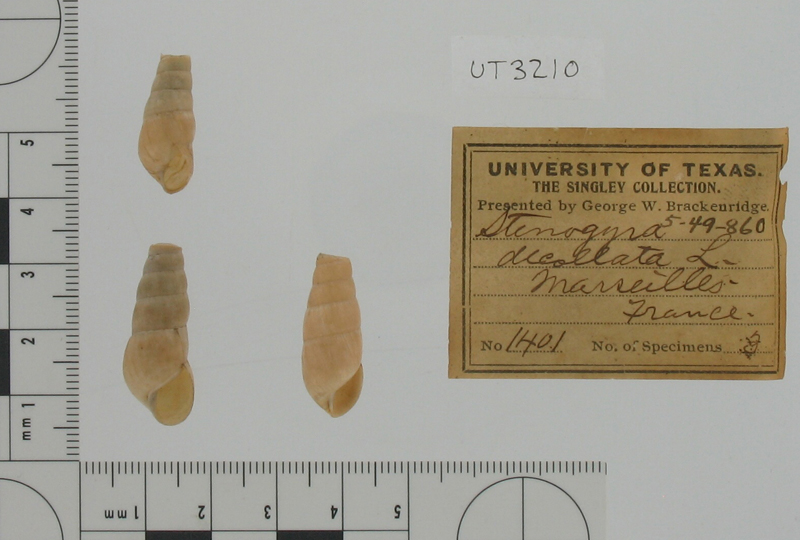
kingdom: Animalia
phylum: Mollusca
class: Gastropoda
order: Stylommatophora
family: Achatinidae
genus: Rumina
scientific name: Rumina decollata
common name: Decollate snail
